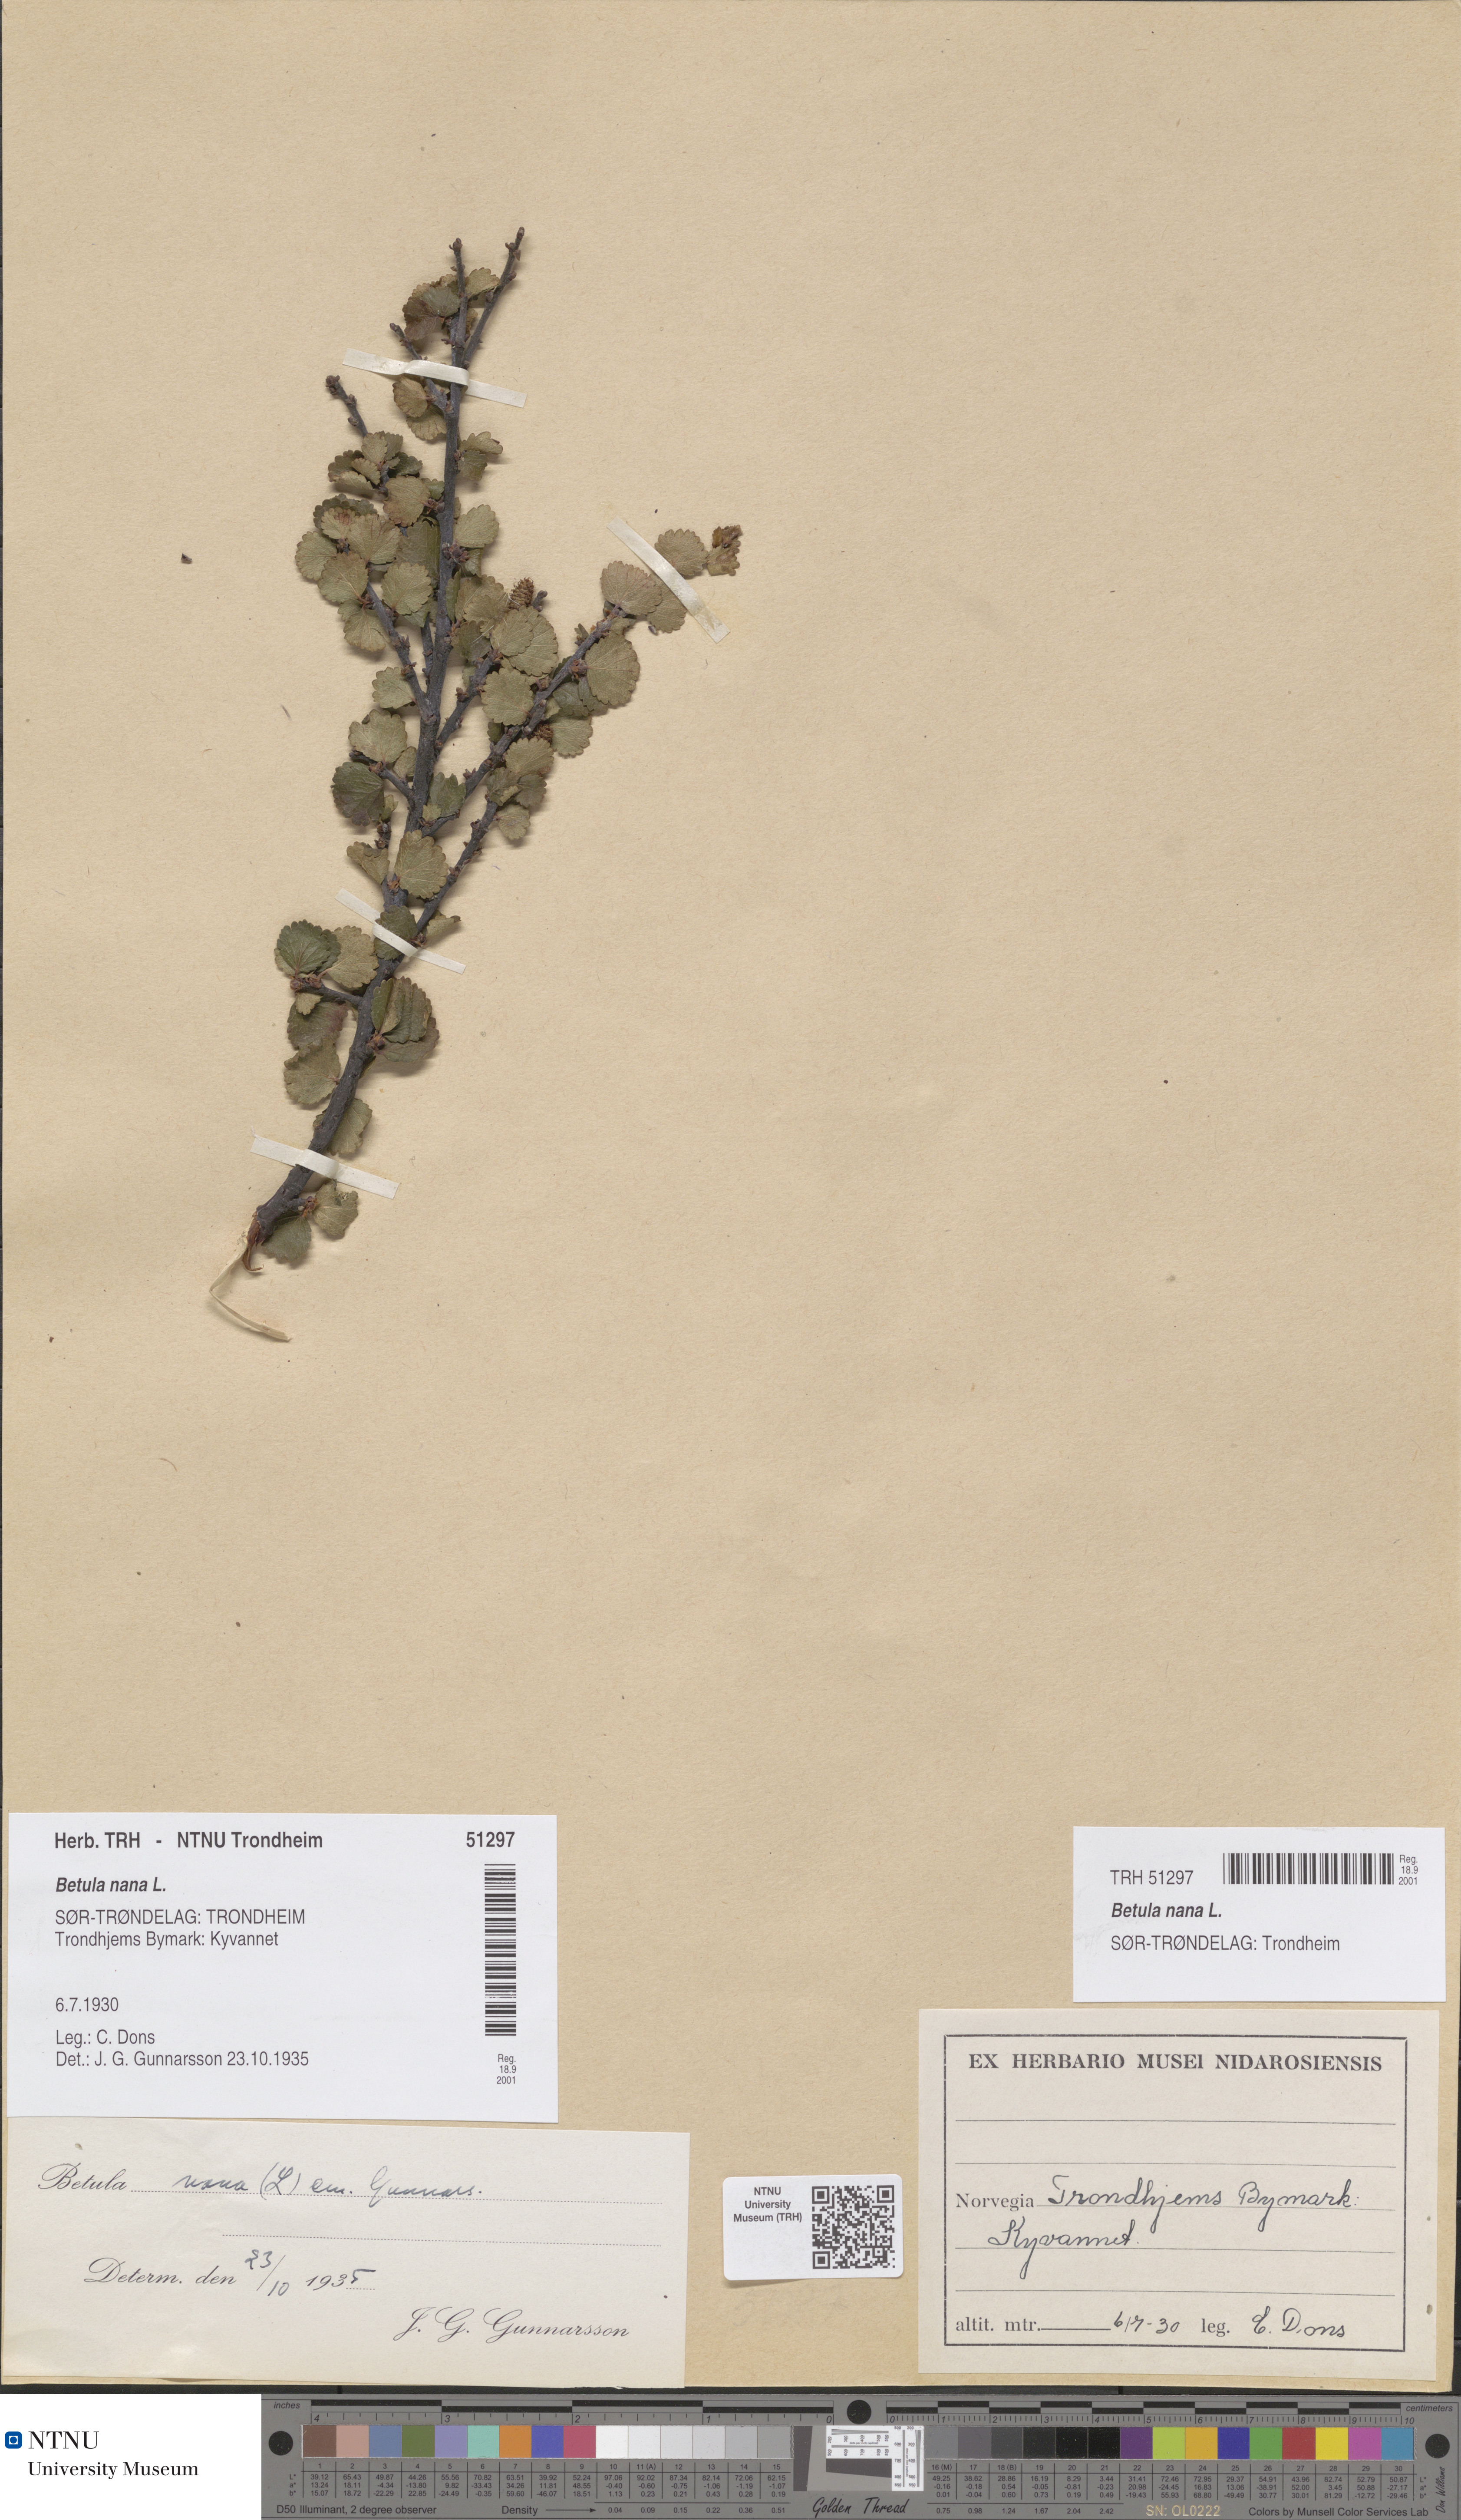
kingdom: Plantae
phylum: Tracheophyta
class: Magnoliopsida
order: Fagales
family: Betulaceae
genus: Betula
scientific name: Betula nana
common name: Arctic dwarf birch
